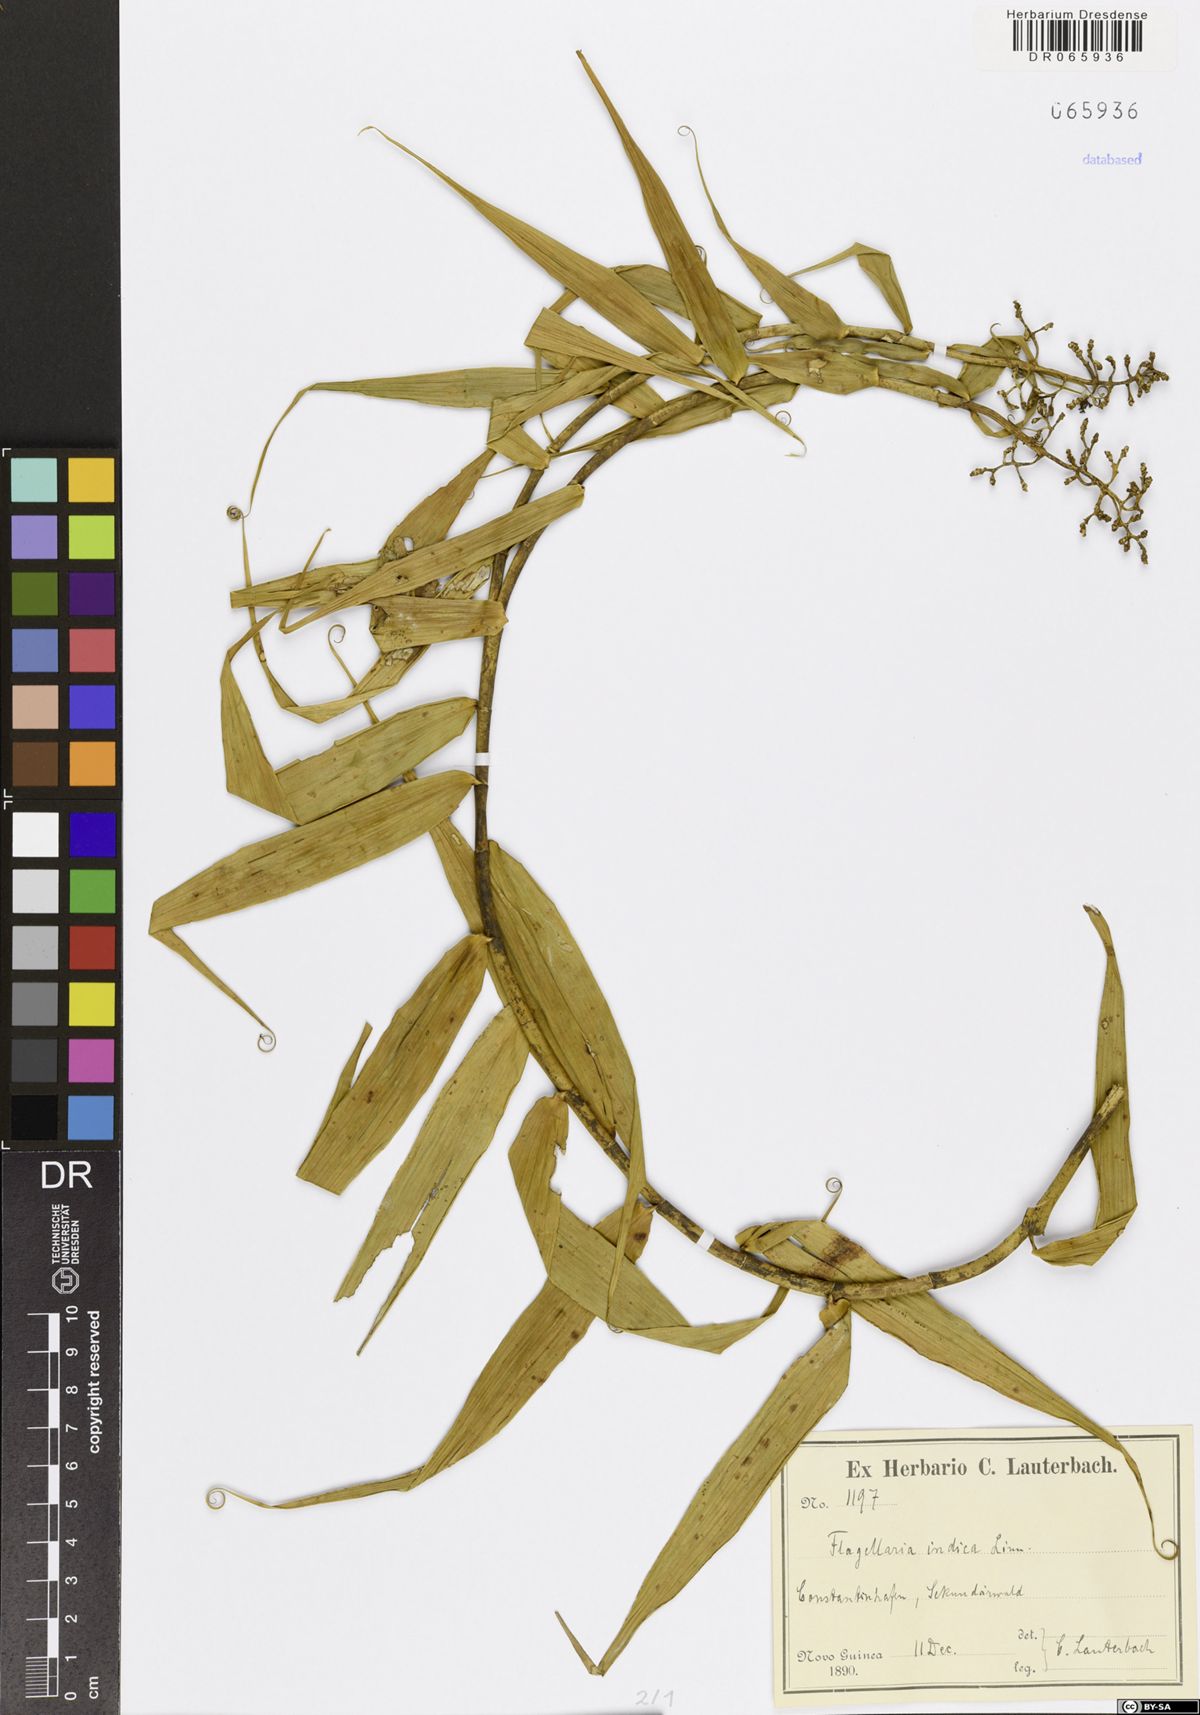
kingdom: Plantae
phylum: Tracheophyta
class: Liliopsida
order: Poales
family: Flagellariaceae
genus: Flagellaria
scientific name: Flagellaria indica
